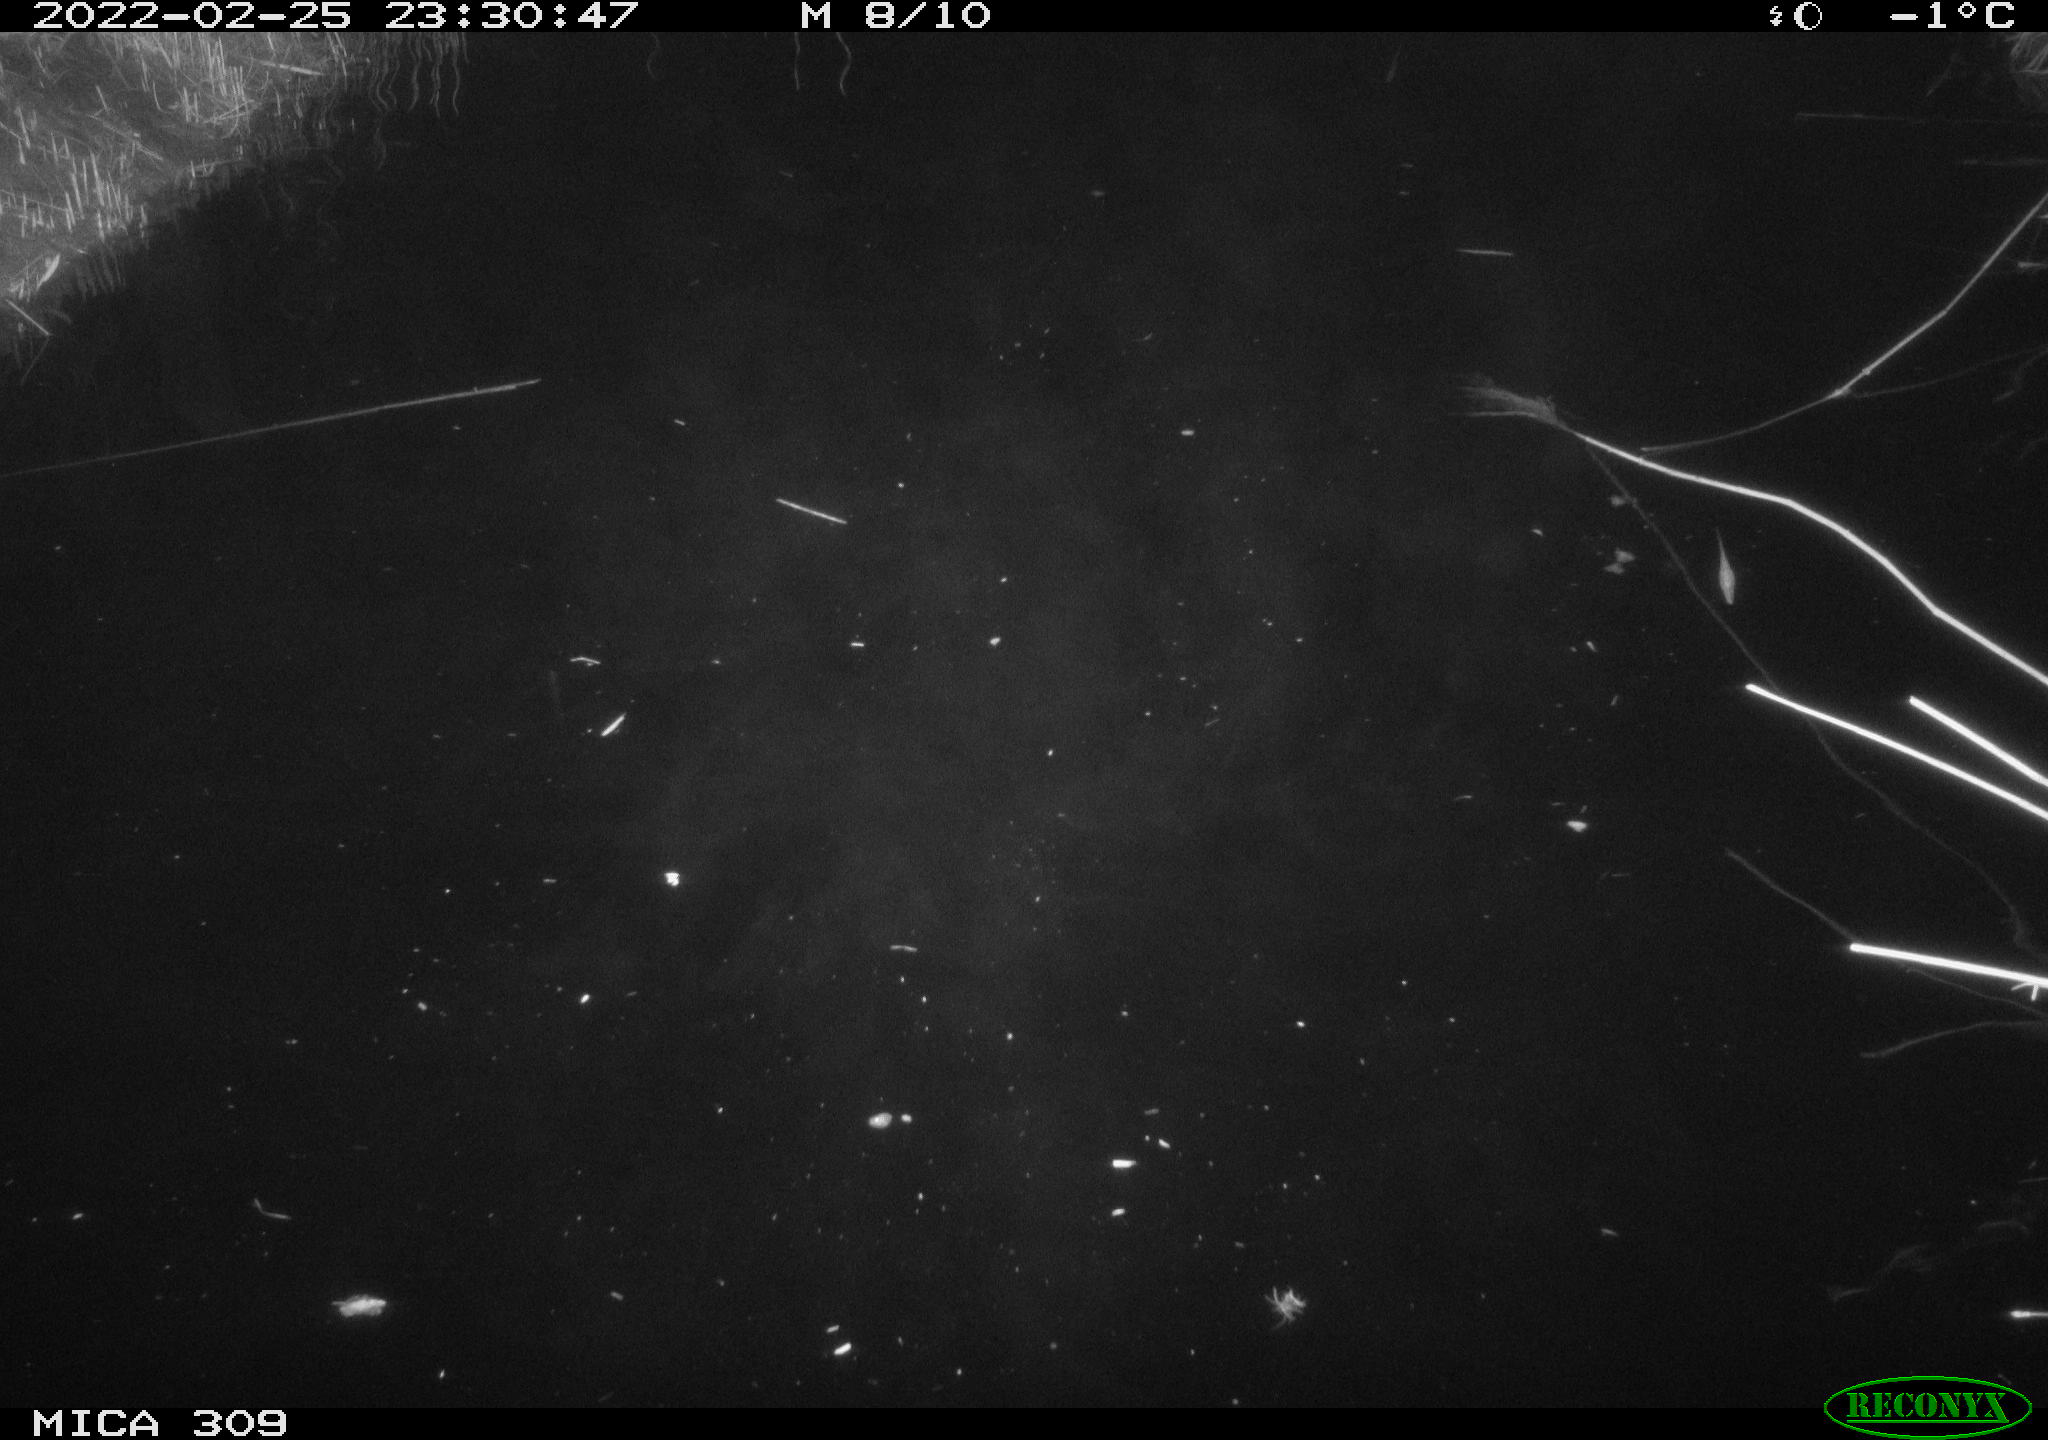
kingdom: Animalia
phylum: Chordata
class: Mammalia
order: Rodentia
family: Cricetidae
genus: Ondatra
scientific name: Ondatra zibethicus
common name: Muskrat
